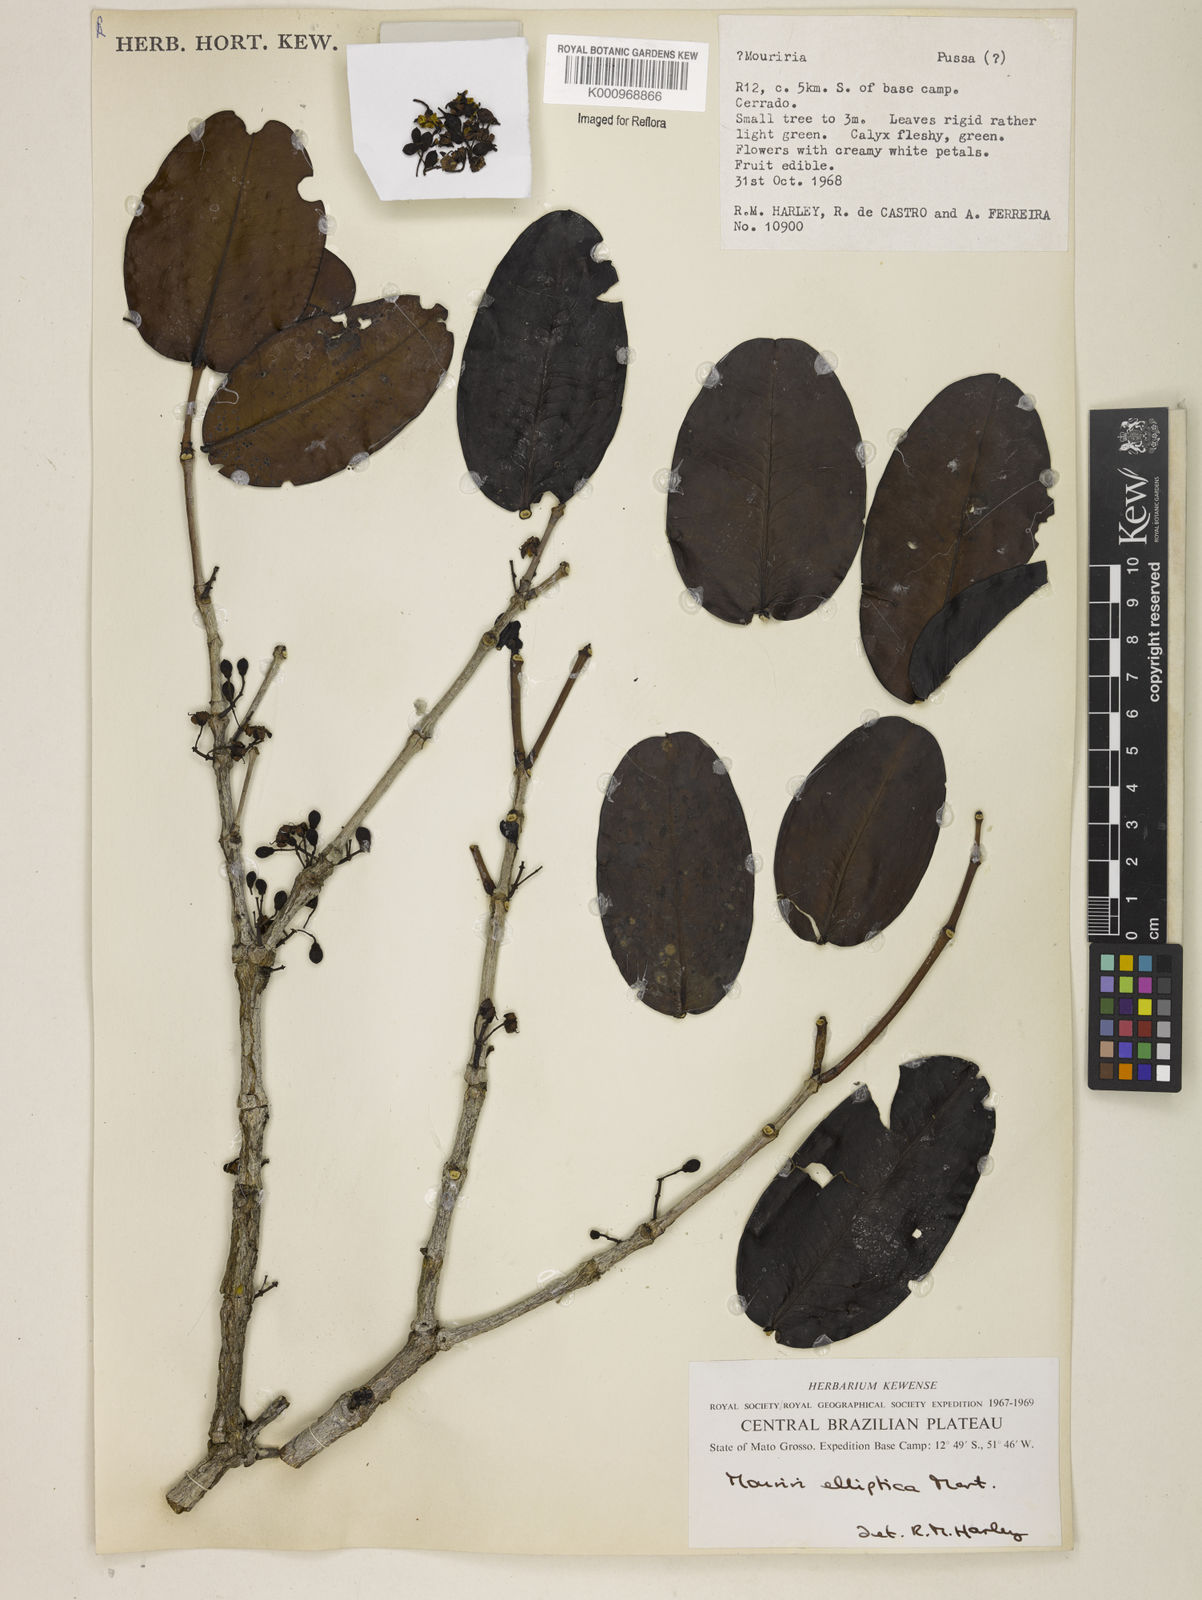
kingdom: Plantae
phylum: Tracheophyta
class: Magnoliopsida
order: Myrtales
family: Melastomataceae
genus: Mouriri
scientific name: Mouriri elliptica
